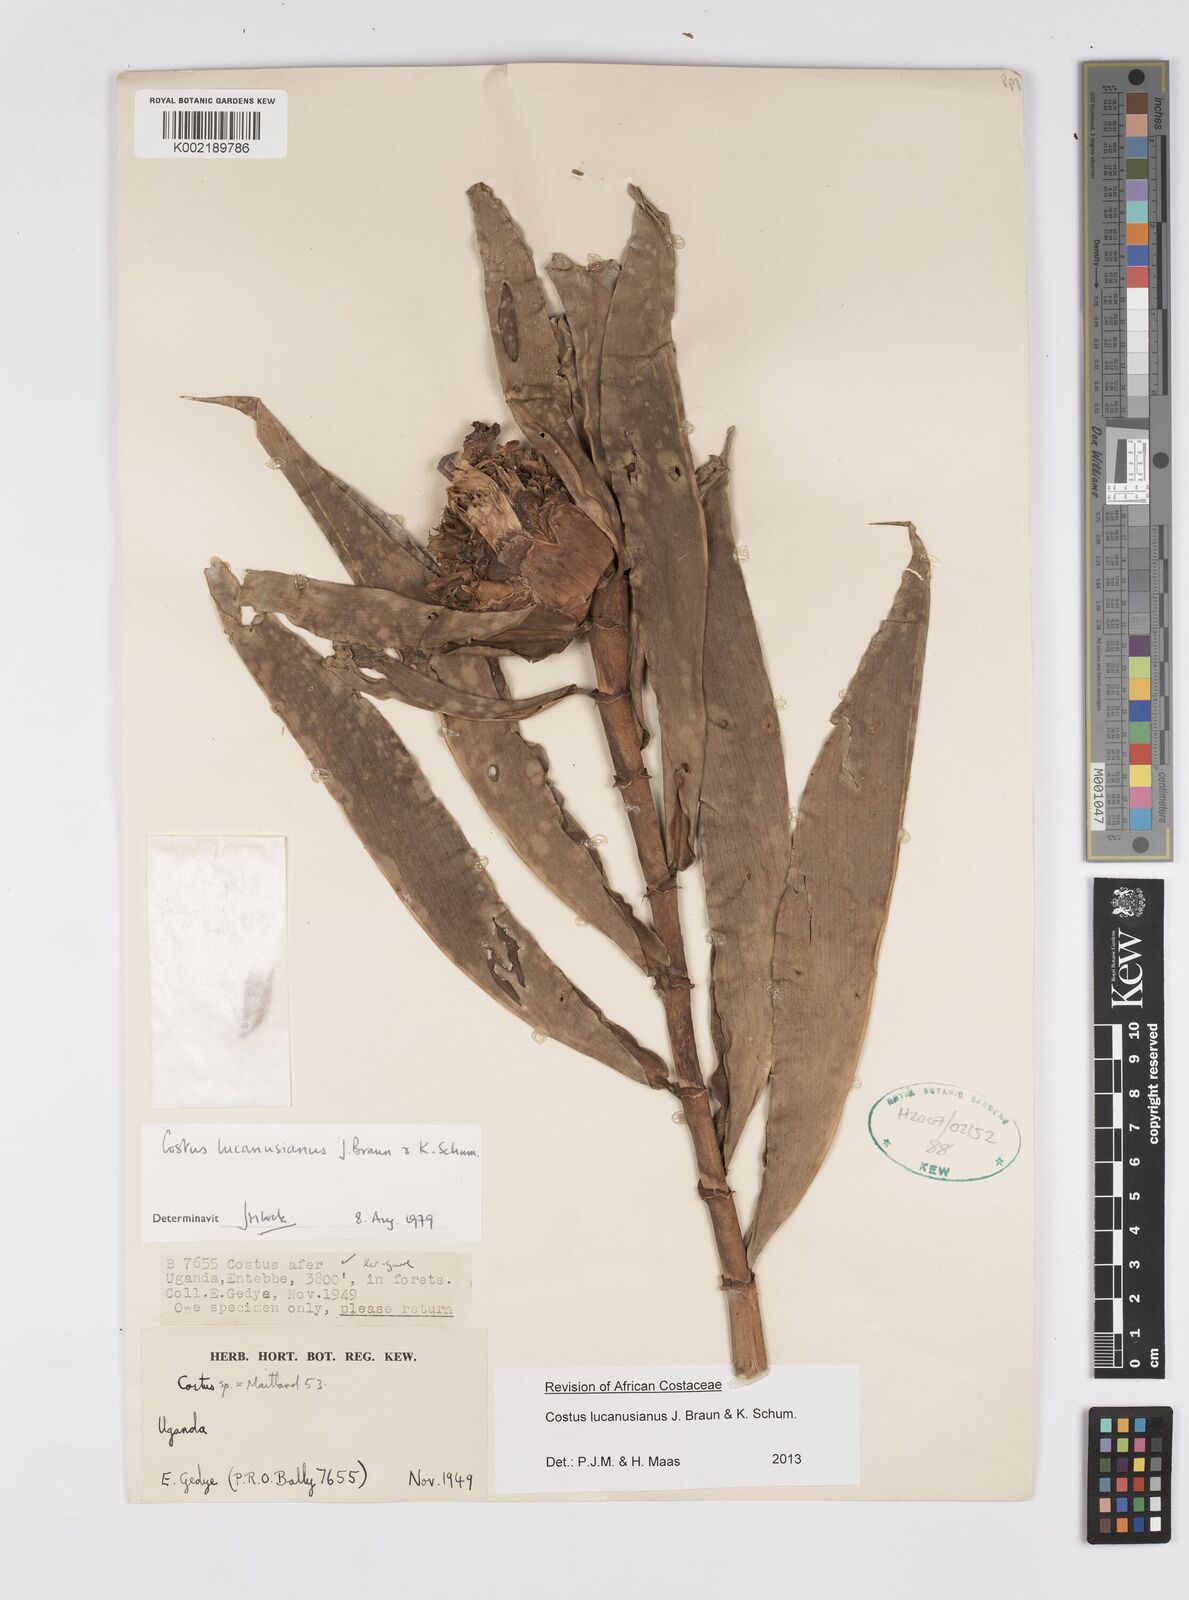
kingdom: Plantae
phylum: Tracheophyta
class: Liliopsida
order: Zingiberales
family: Costaceae
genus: Costus
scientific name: Costus lucanusianus
